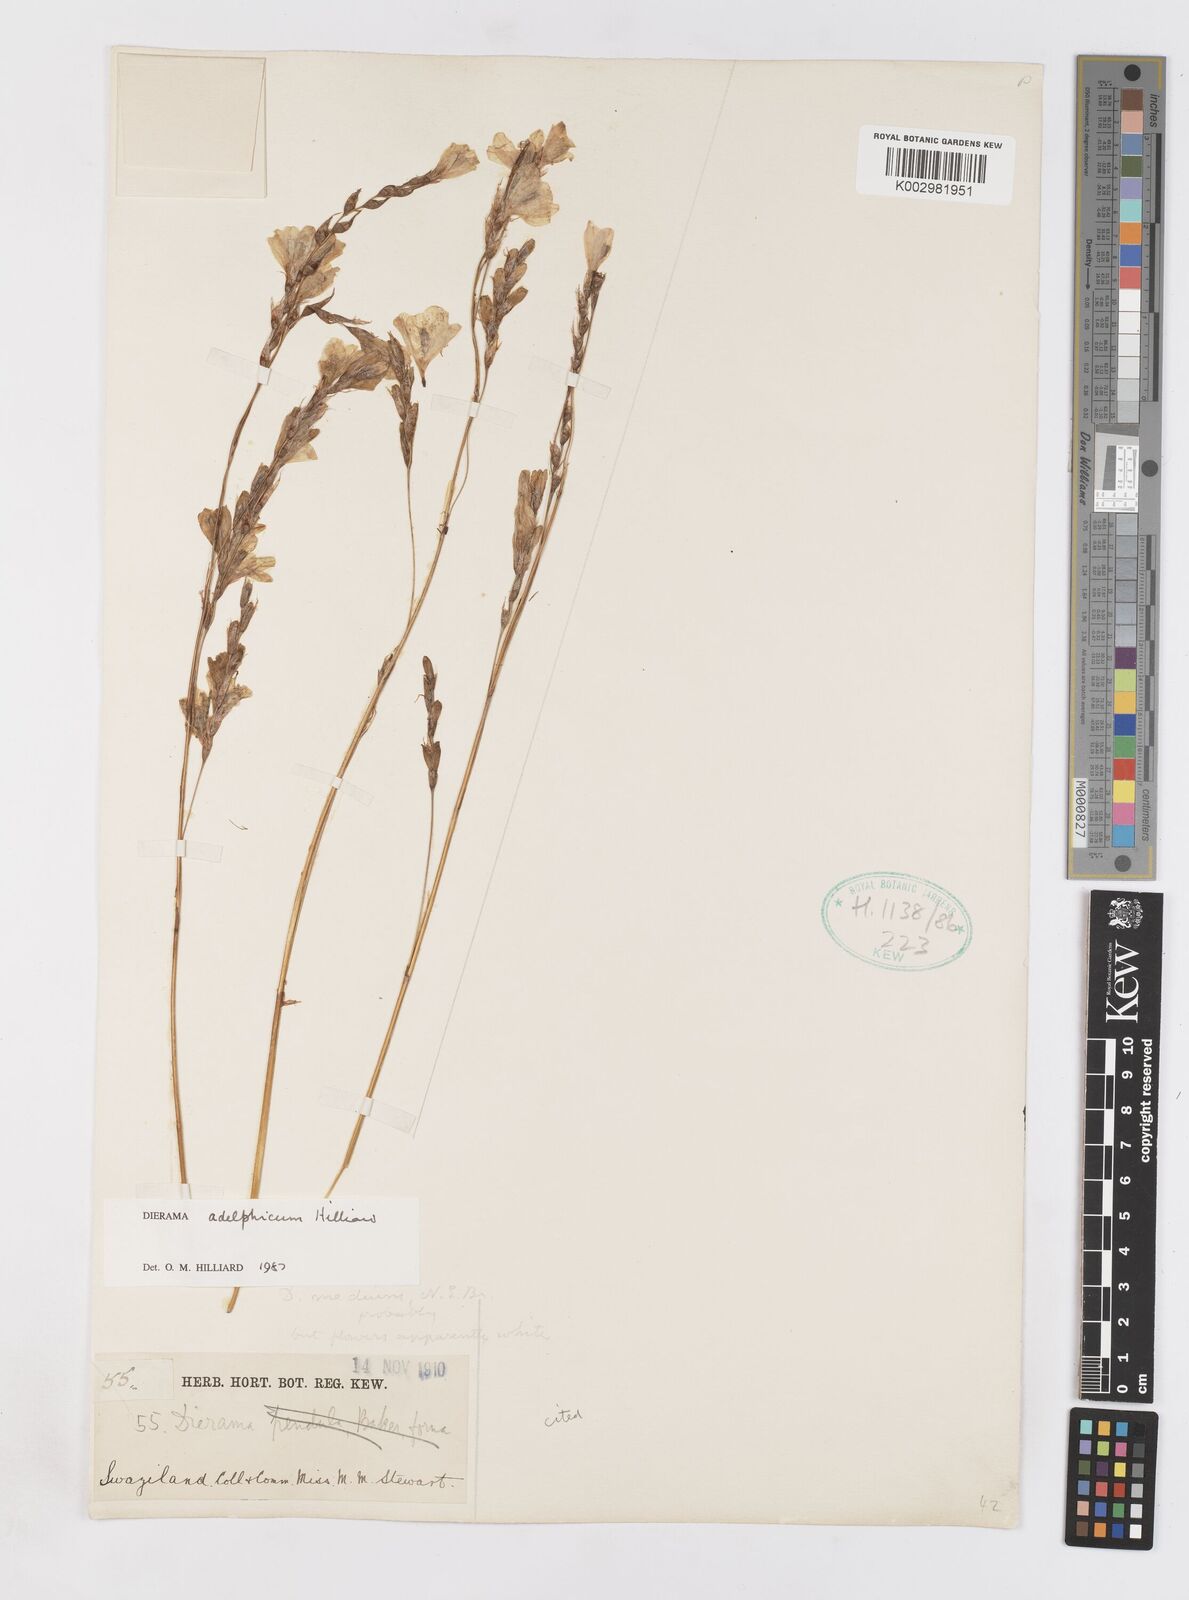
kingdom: Plantae
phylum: Tracheophyta
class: Liliopsida
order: Asparagales
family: Iridaceae
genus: Dierama
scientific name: Dierama adelphicum
